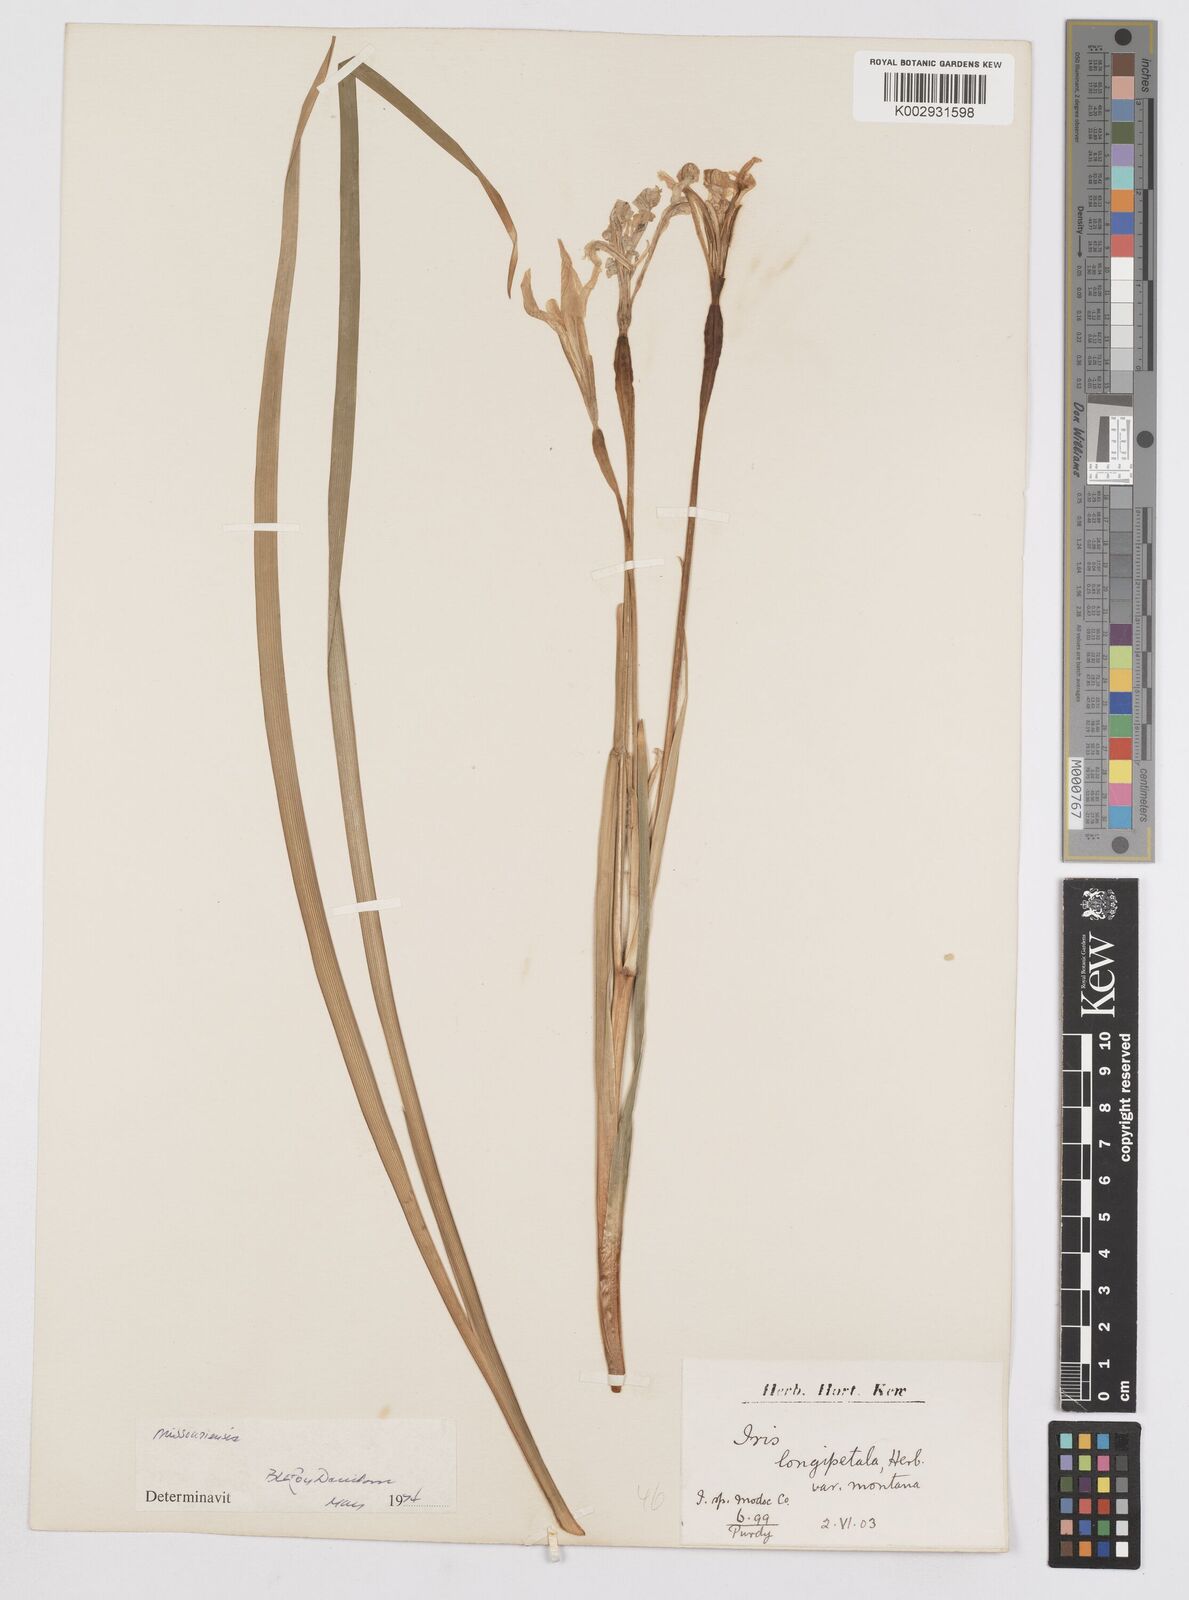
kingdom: Plantae
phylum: Tracheophyta
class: Liliopsida
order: Asparagales
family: Iridaceae
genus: Iris
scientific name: Iris longipetala
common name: Long-petal iris
